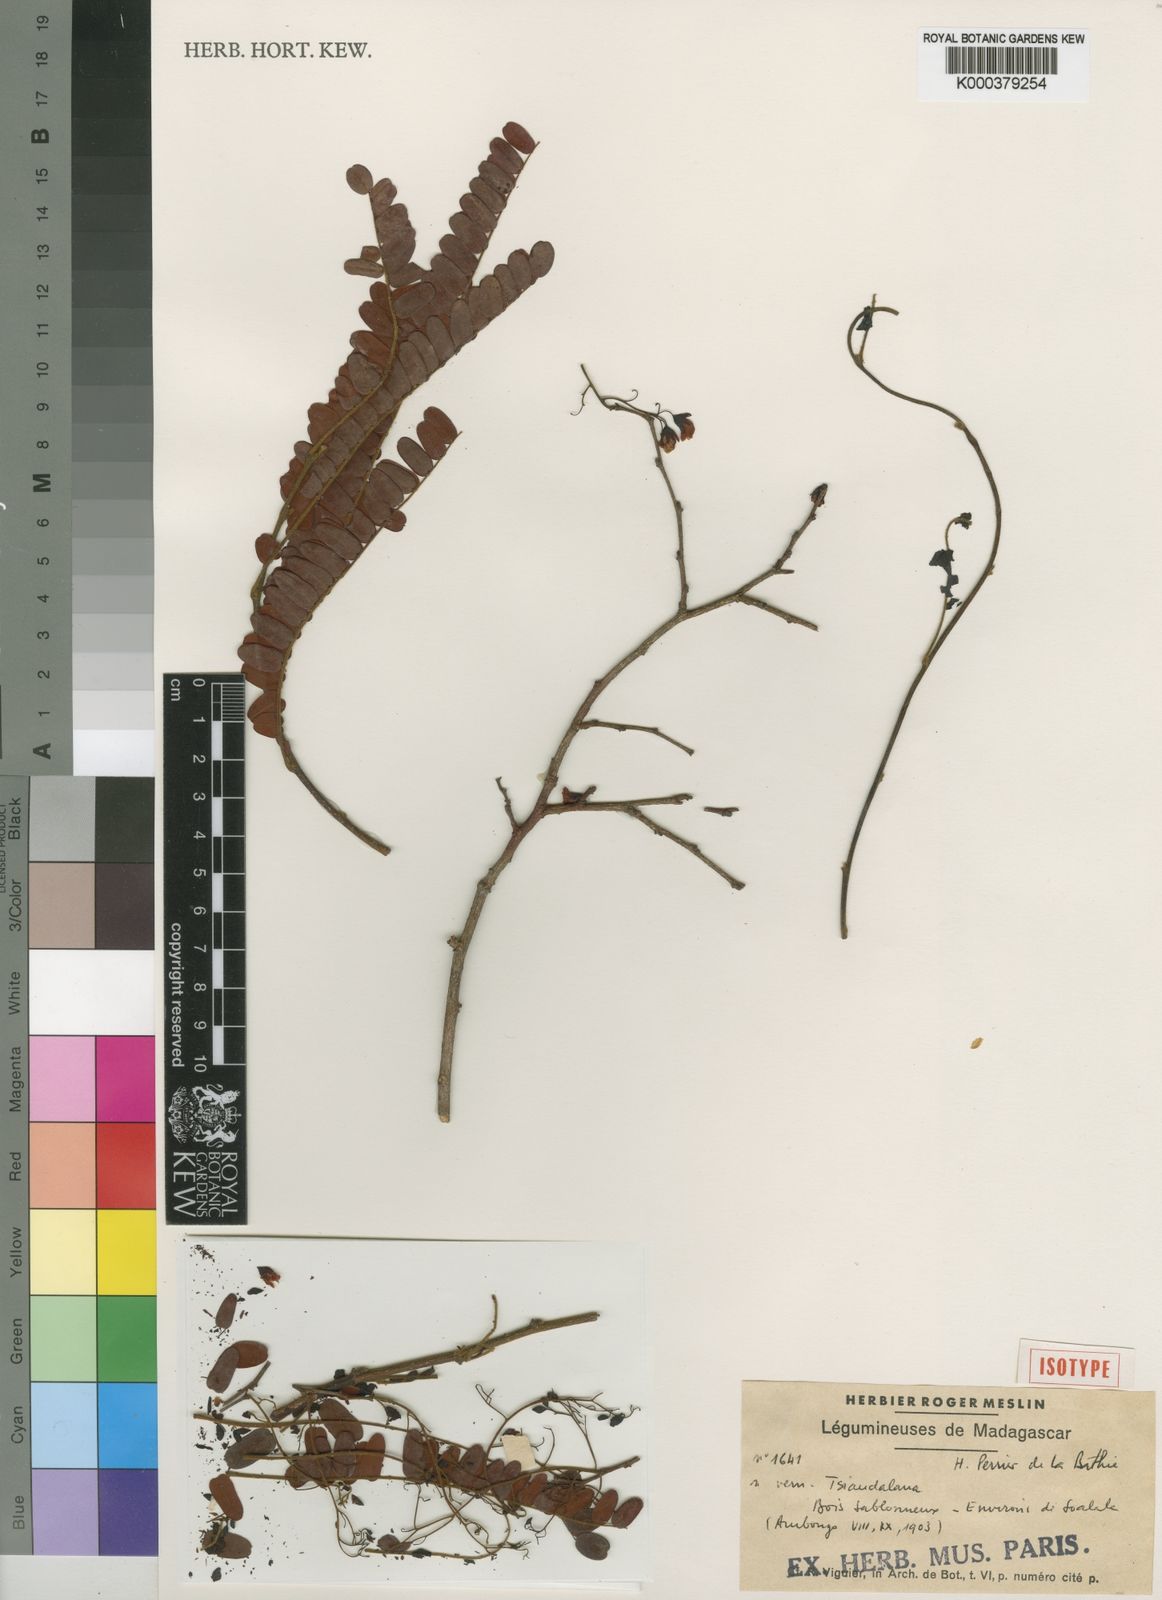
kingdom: Plantae
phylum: Tracheophyta
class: Magnoliopsida
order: Fabales
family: Fabaceae
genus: Dalbergia
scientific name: Dalbergia tsiandalana
